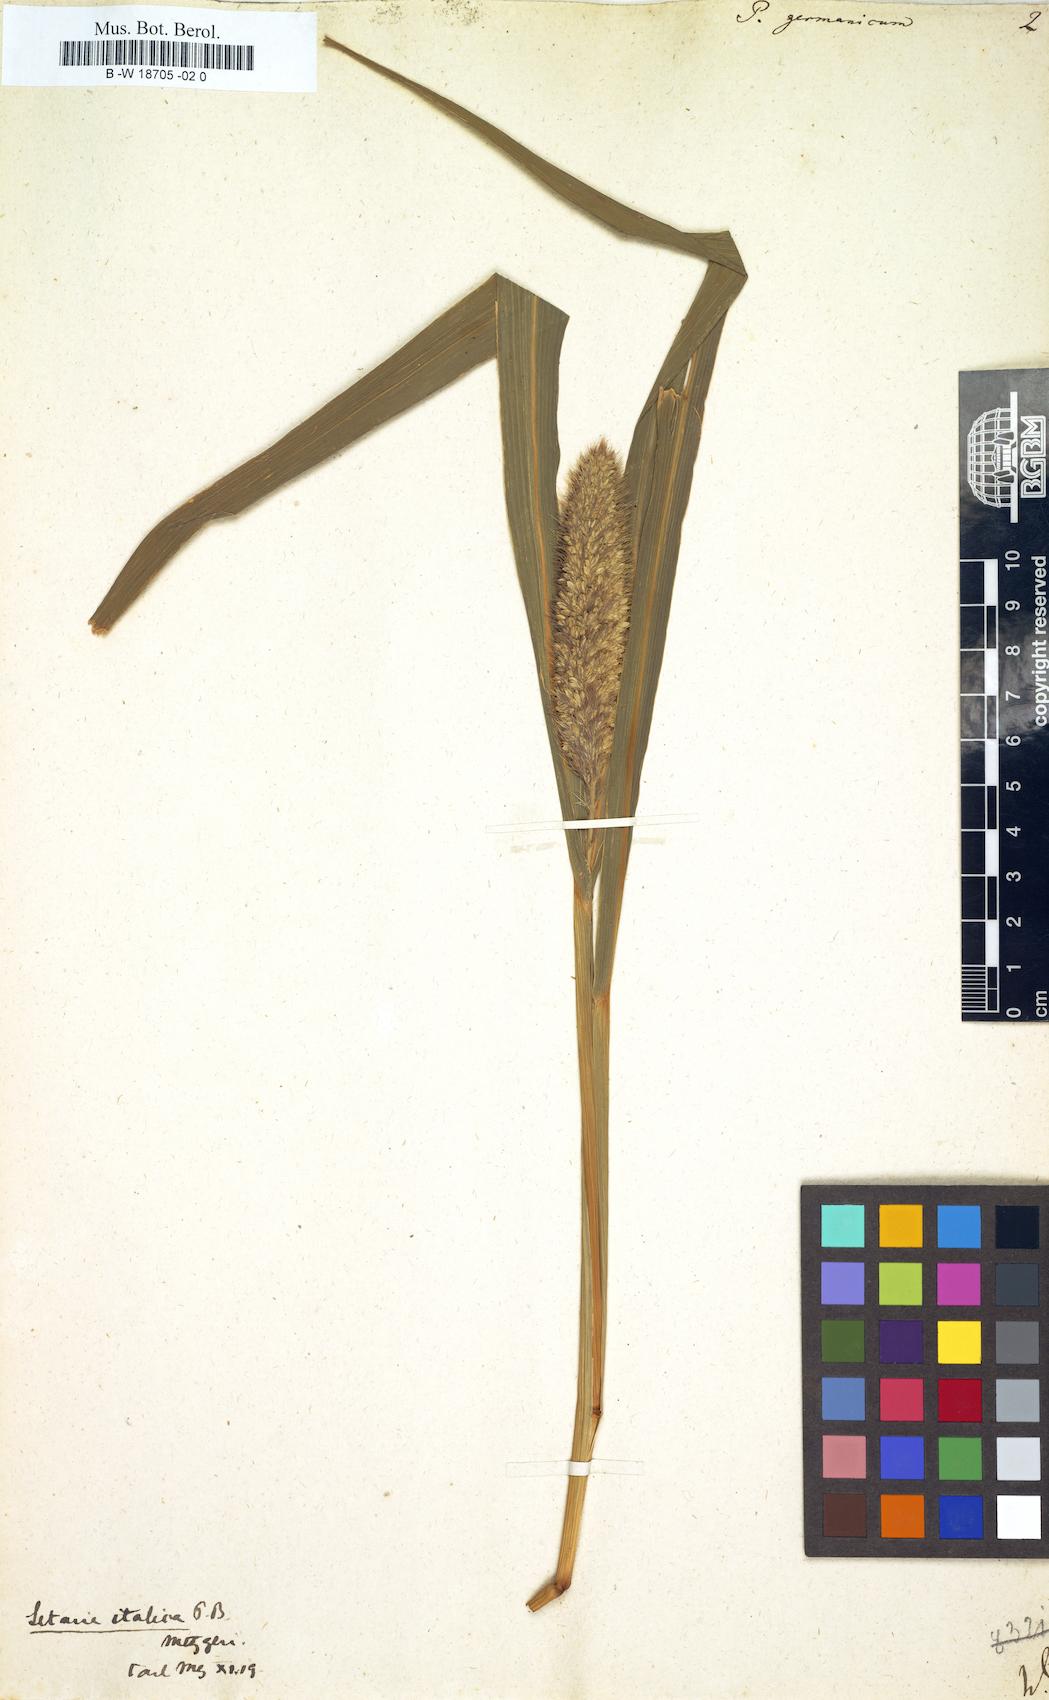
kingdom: Plantae
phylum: Tracheophyta
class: Liliopsida
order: Poales
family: Poaceae
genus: Setaria
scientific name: Setaria italica
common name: Foxtail bristle-grass
